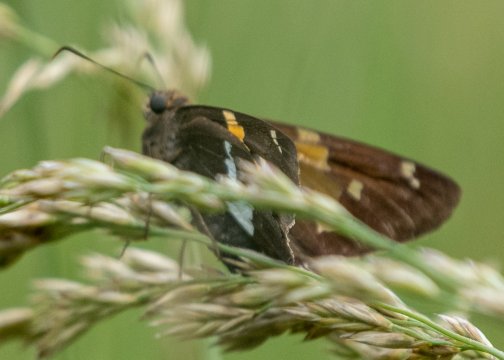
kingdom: Animalia
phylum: Arthropoda
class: Insecta
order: Lepidoptera
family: Hesperiidae
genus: Epargyreus
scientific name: Epargyreus clarus
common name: Silver-spotted Skipper
